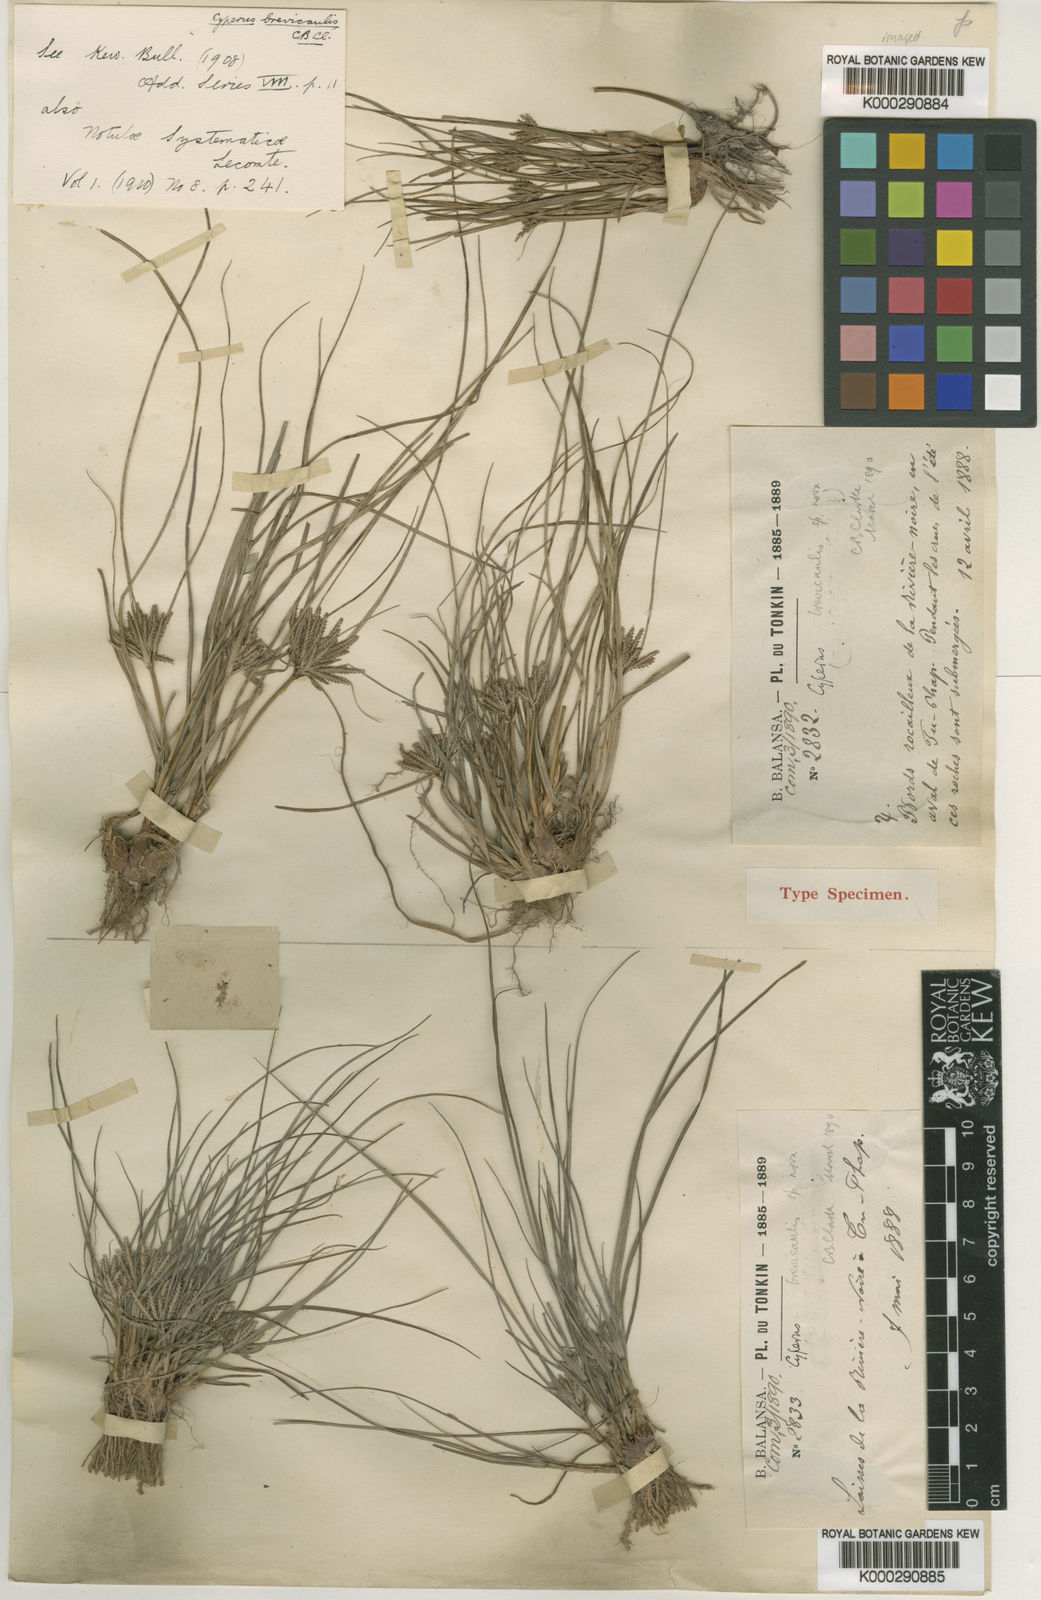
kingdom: Plantae
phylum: Tracheophyta
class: Liliopsida
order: Poales
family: Cyperaceae
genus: Cyperus
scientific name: Cyperus tonkinensis
